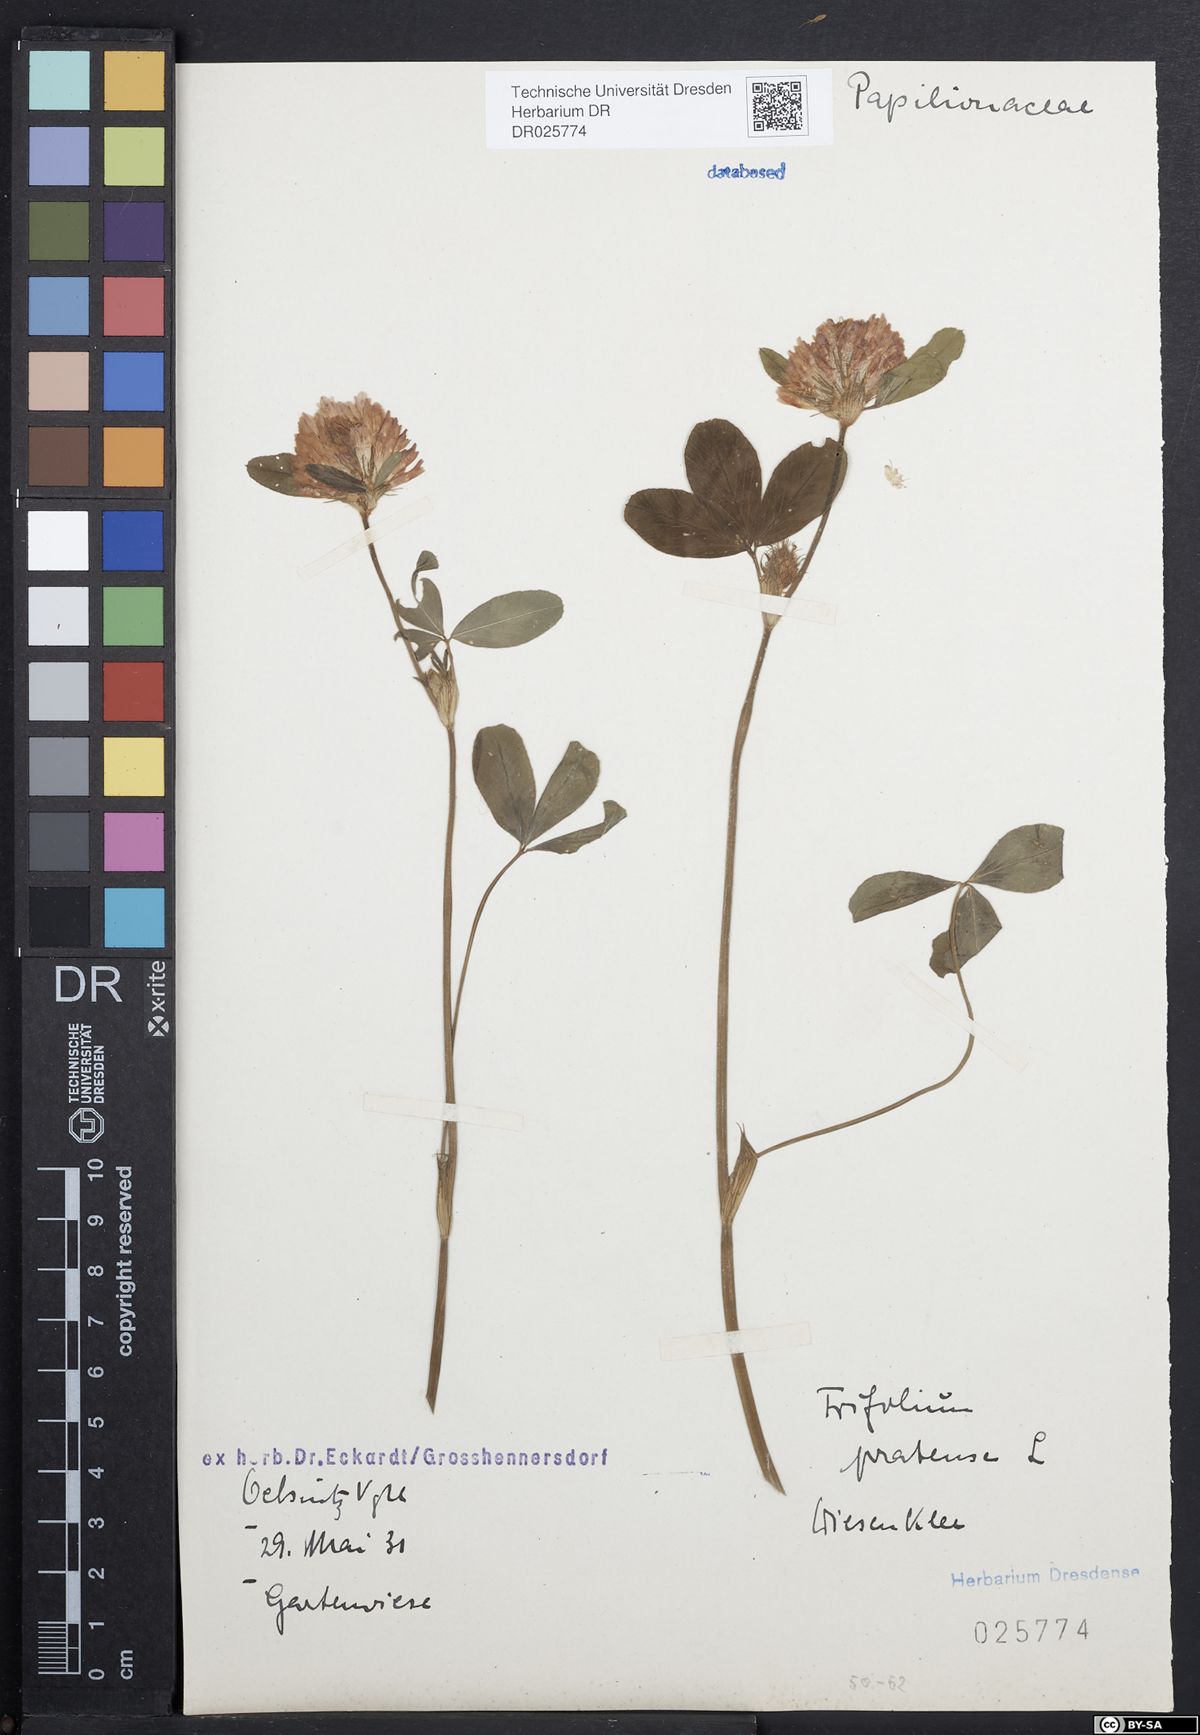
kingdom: Plantae
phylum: Tracheophyta
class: Magnoliopsida
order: Fabales
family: Fabaceae
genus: Trifolium
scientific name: Trifolium pratense
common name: Red clover
